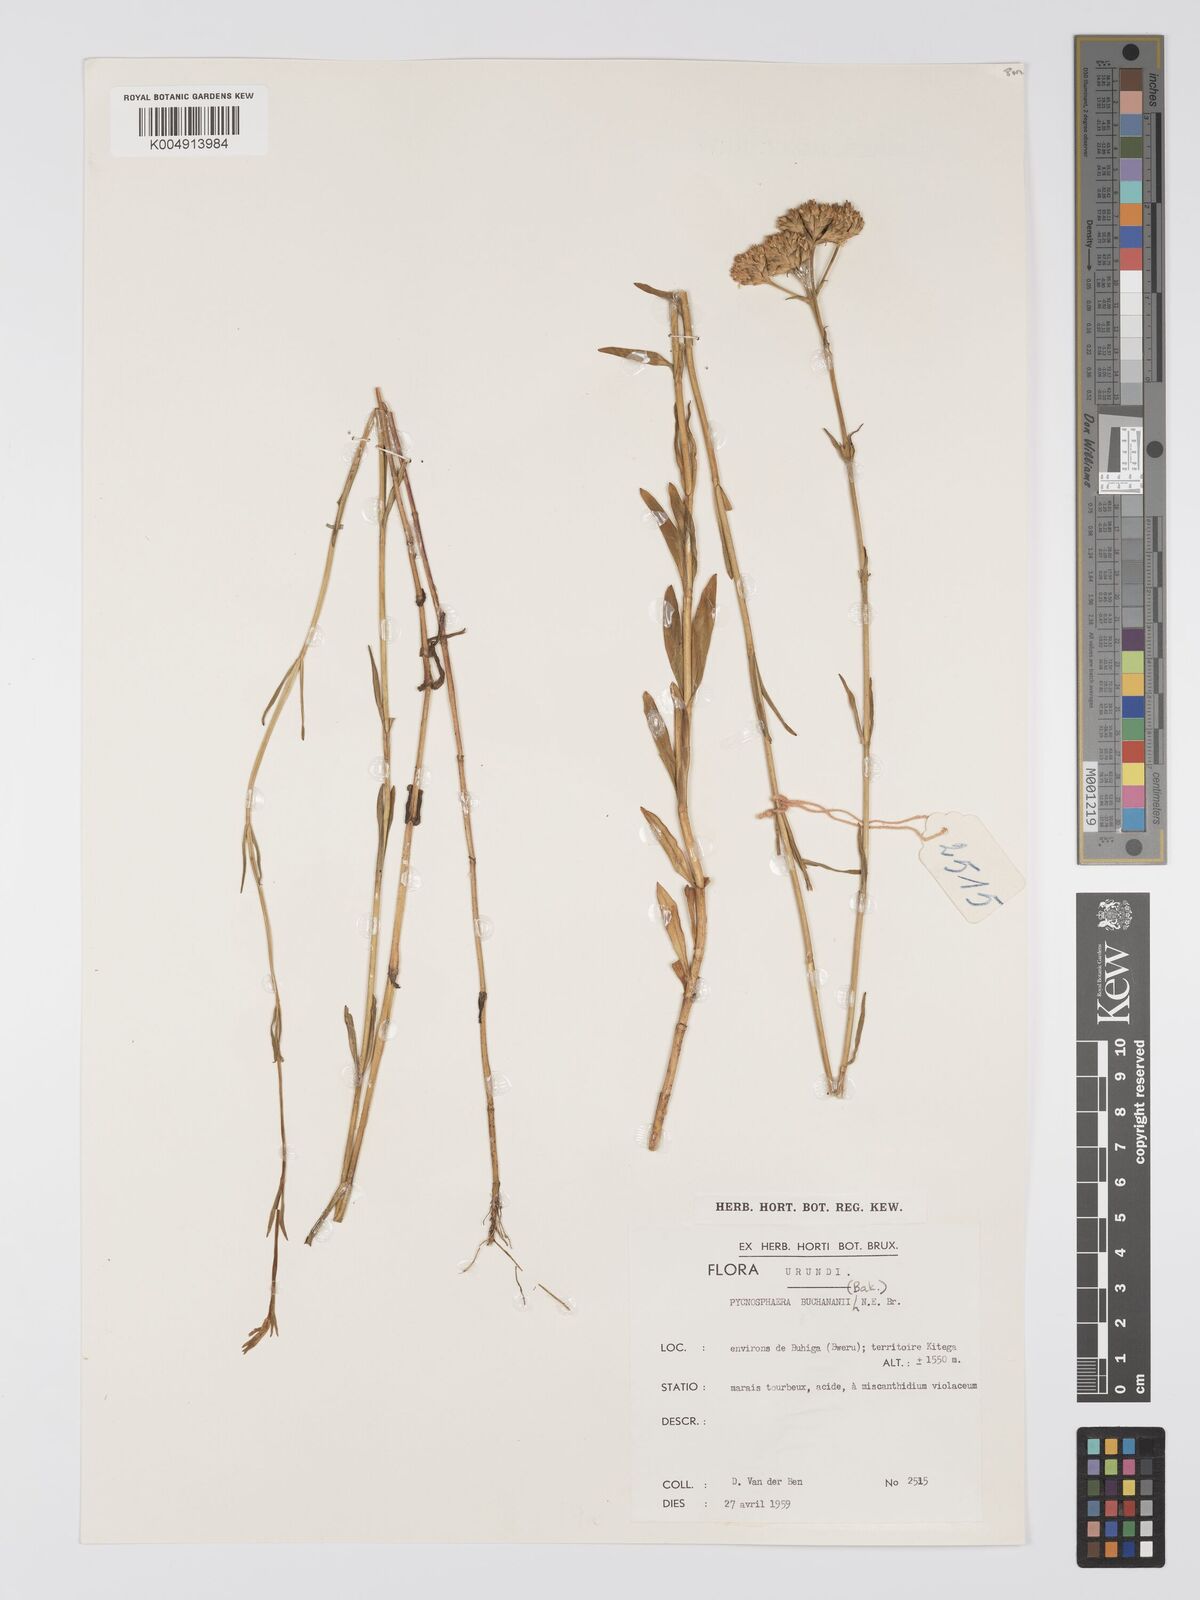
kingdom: Plantae
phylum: Tracheophyta
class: Magnoliopsida
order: Gentianales
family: Gentianaceae
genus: Pycnosphaera
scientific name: Pycnosphaera buchananii
